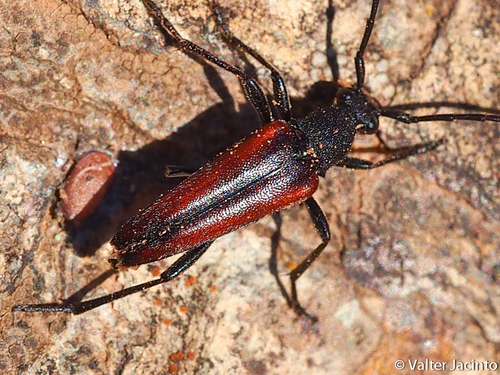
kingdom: Animalia
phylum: Arthropoda
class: Insecta
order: Coleoptera
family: Cerambycidae
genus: Stenurella
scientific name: Stenurella approximans
